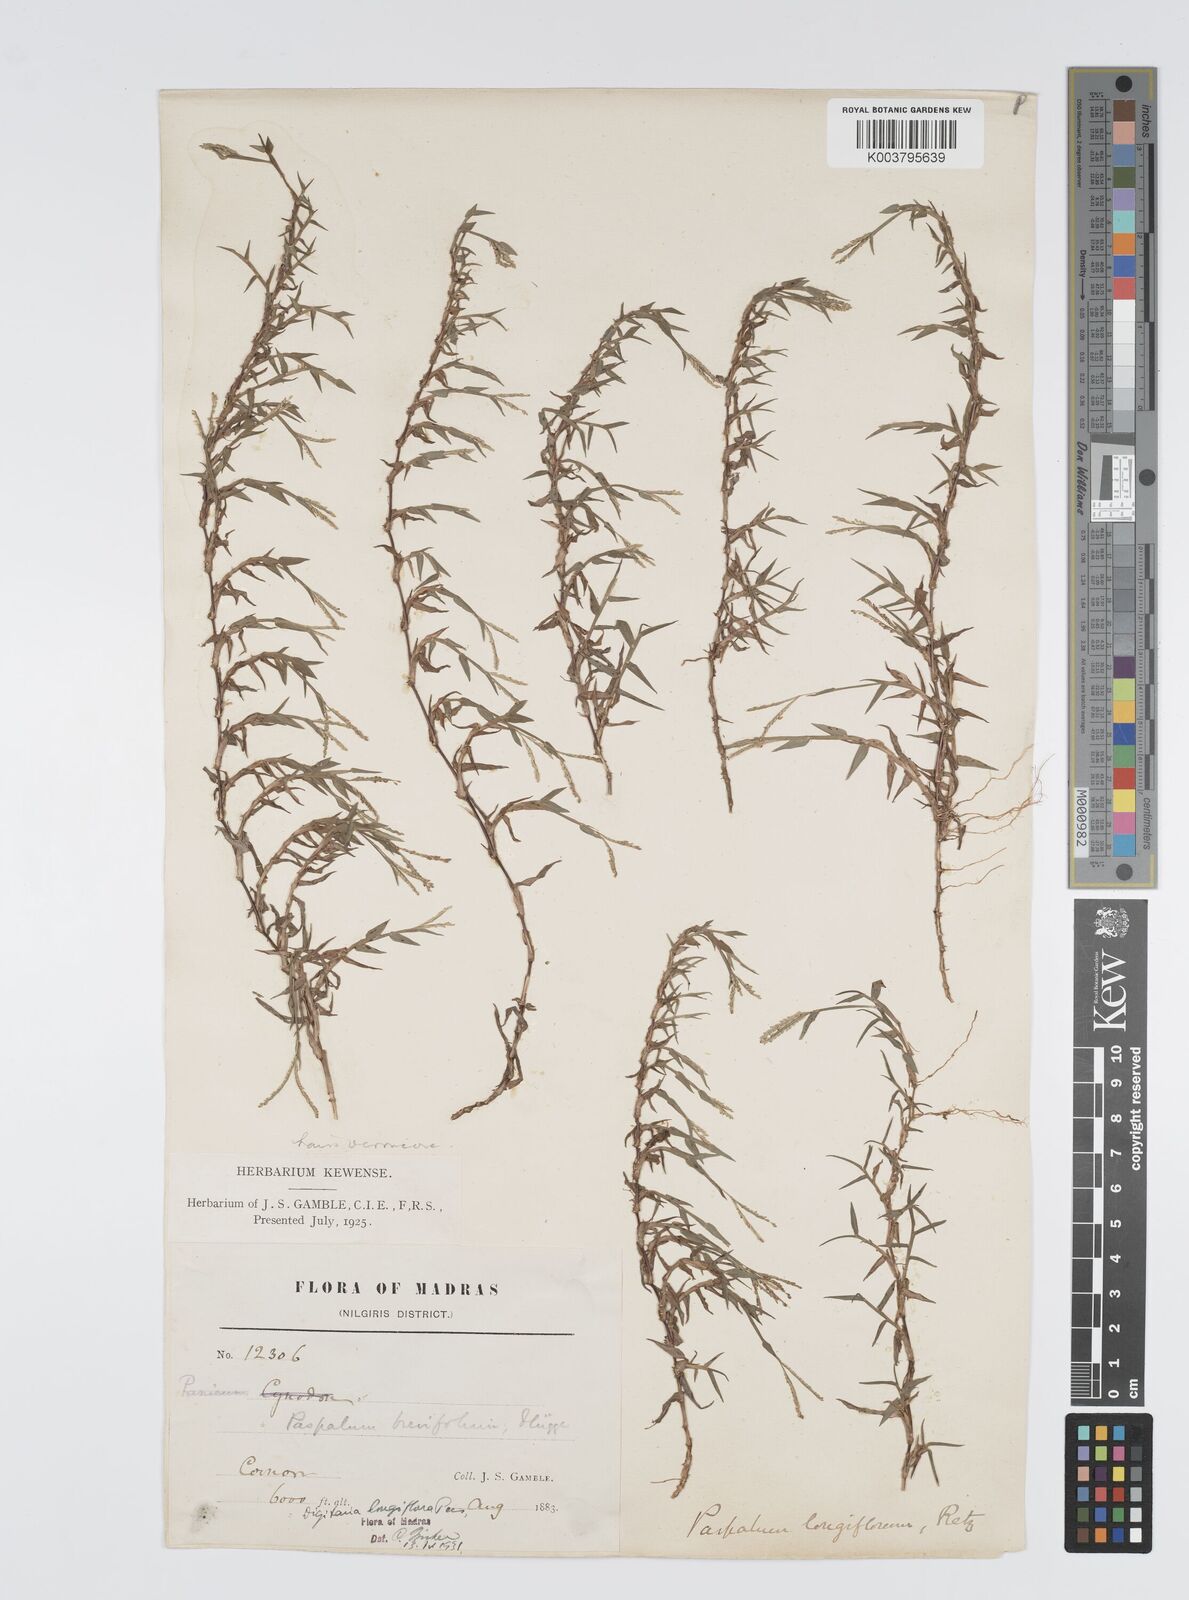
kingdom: Plantae
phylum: Tracheophyta
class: Liliopsida
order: Poales
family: Poaceae
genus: Digitaria
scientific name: Digitaria longiflora
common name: Wire crabgrass
